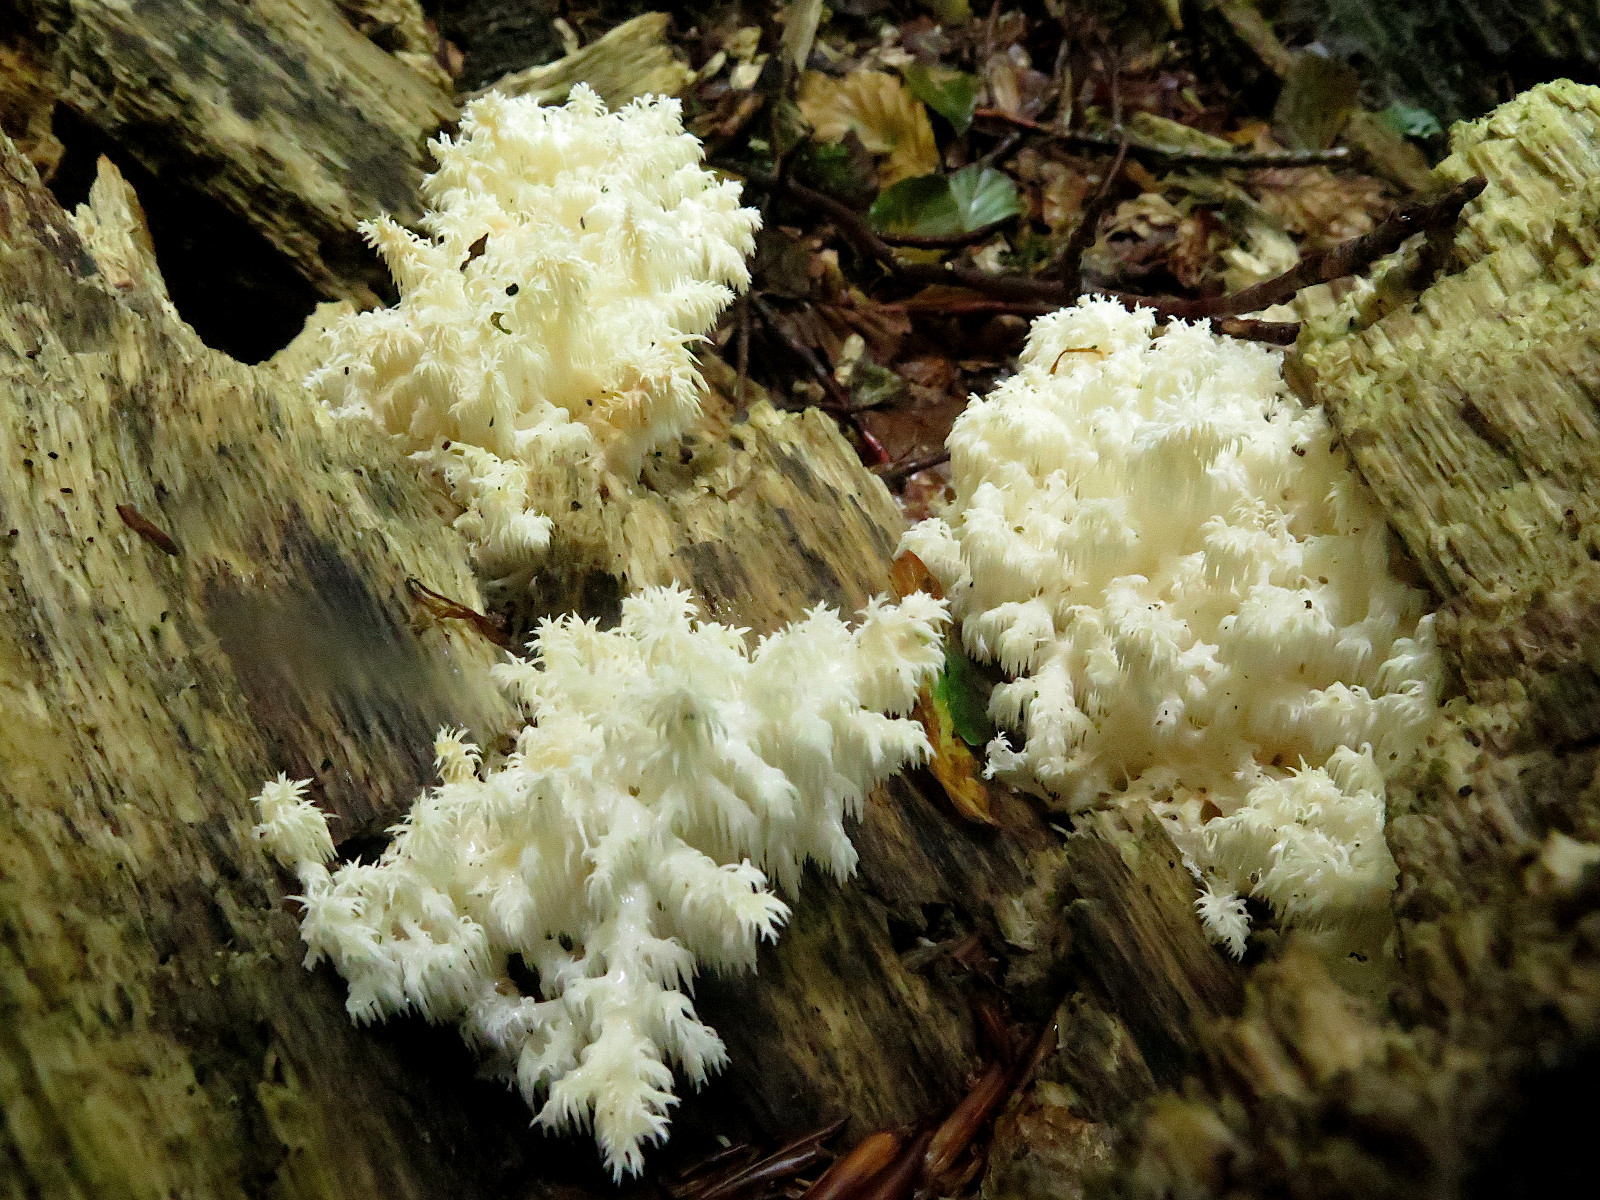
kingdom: Fungi
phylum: Basidiomycota
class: Agaricomycetes
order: Russulales
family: Hericiaceae
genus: Hericium
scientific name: Hericium coralloides
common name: koralpigsvamp
